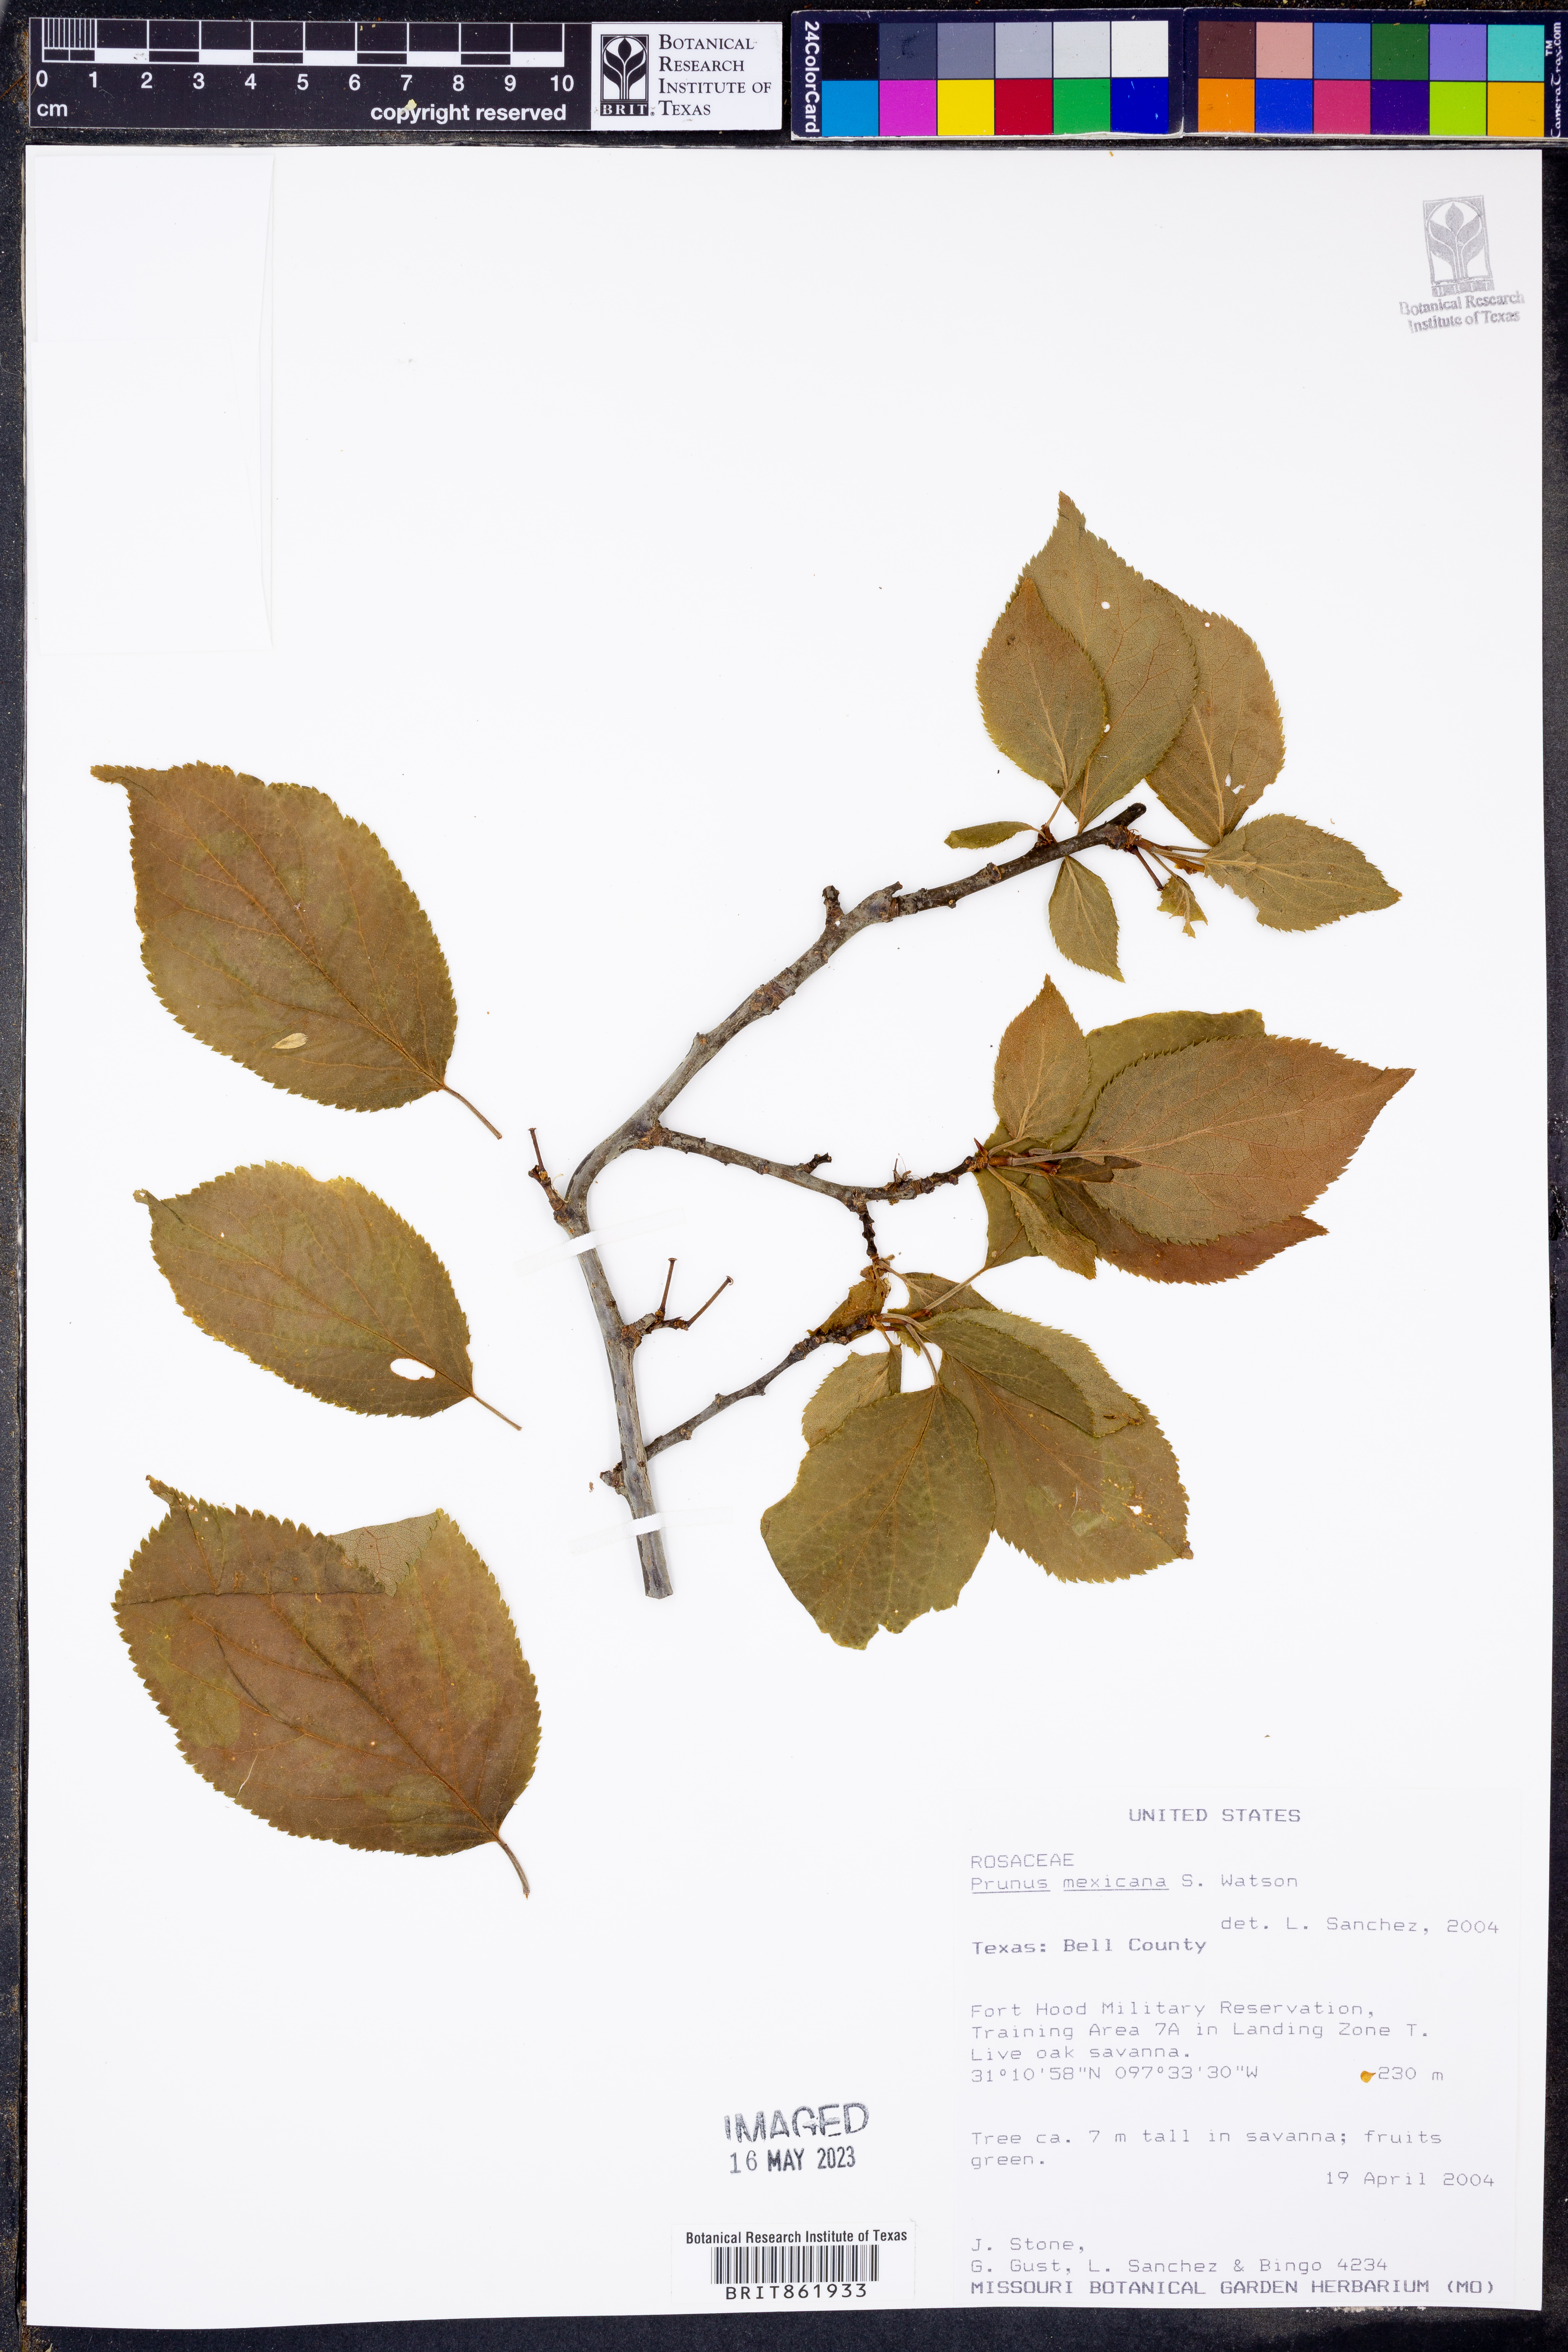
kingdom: Plantae
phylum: Tracheophyta
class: Magnoliopsida
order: Rosales
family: Rosaceae
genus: Prunus
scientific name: Prunus mexicana
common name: Mexican plum
